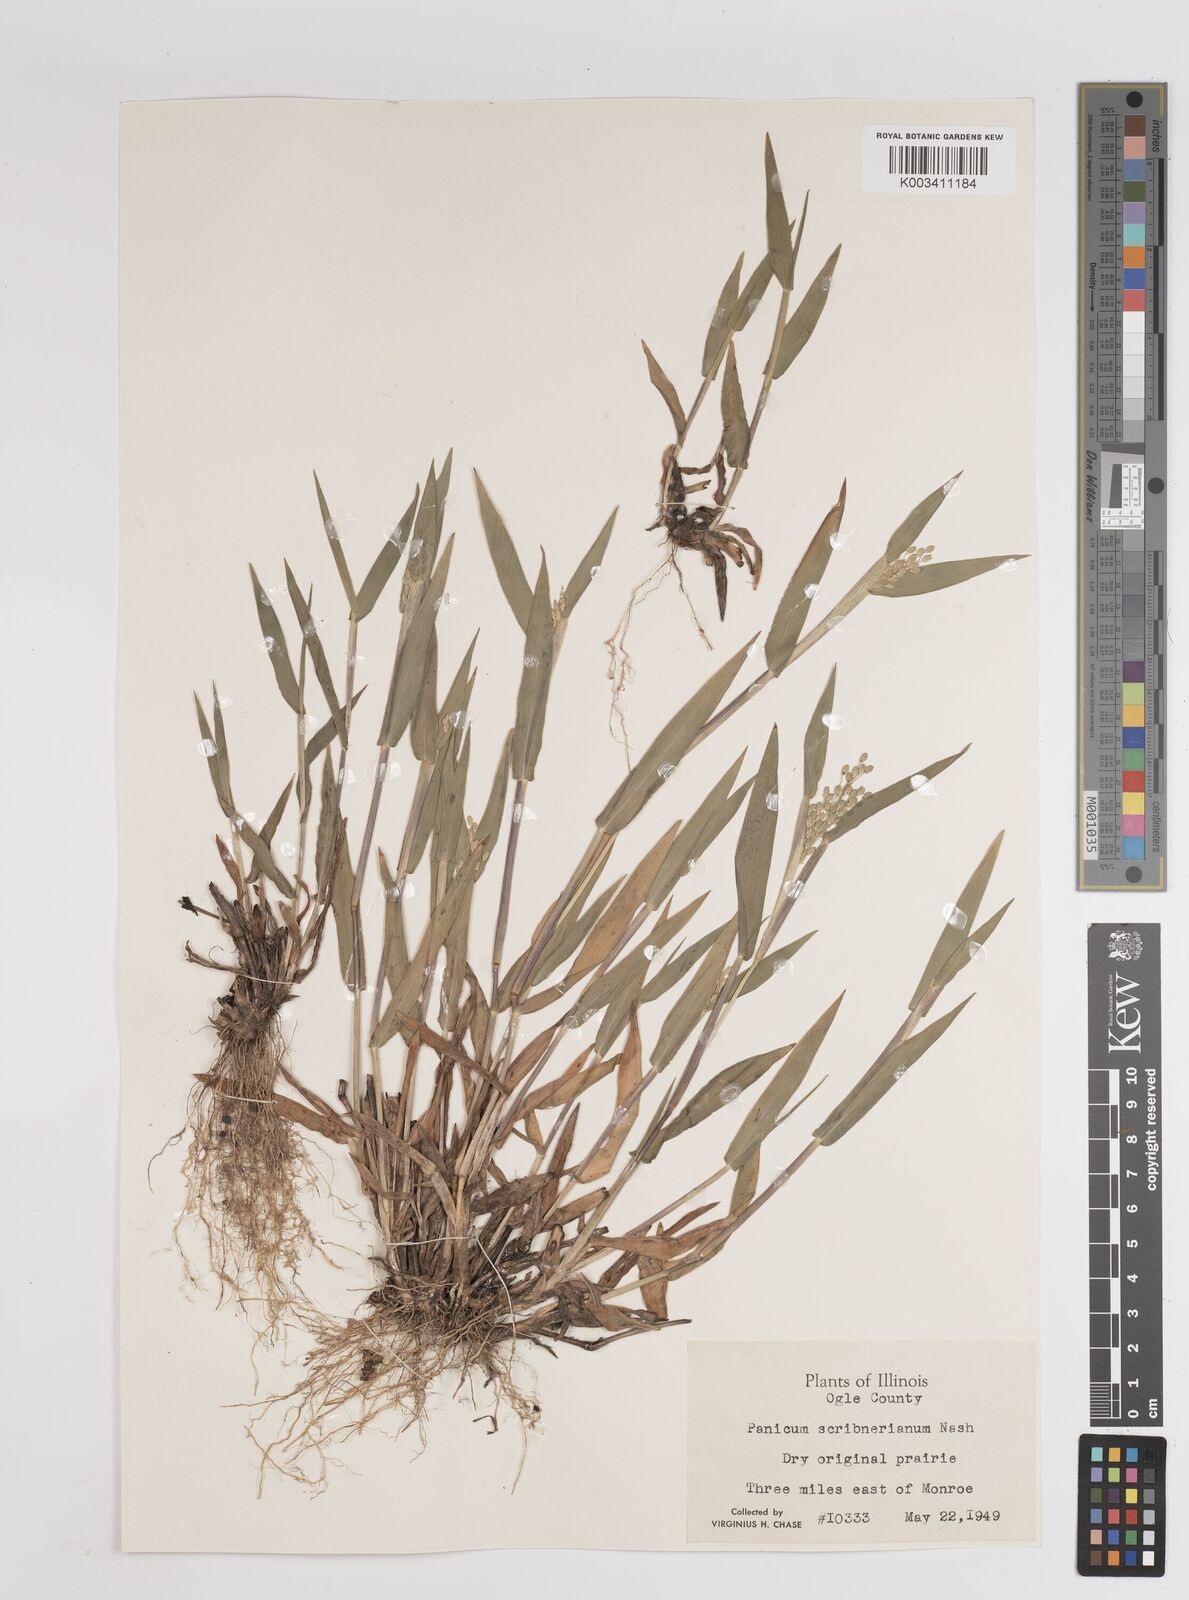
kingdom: Plantae
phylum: Tracheophyta
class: Liliopsida
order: Poales
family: Poaceae
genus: Dichanthelium
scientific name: Dichanthelium scribnerianum
